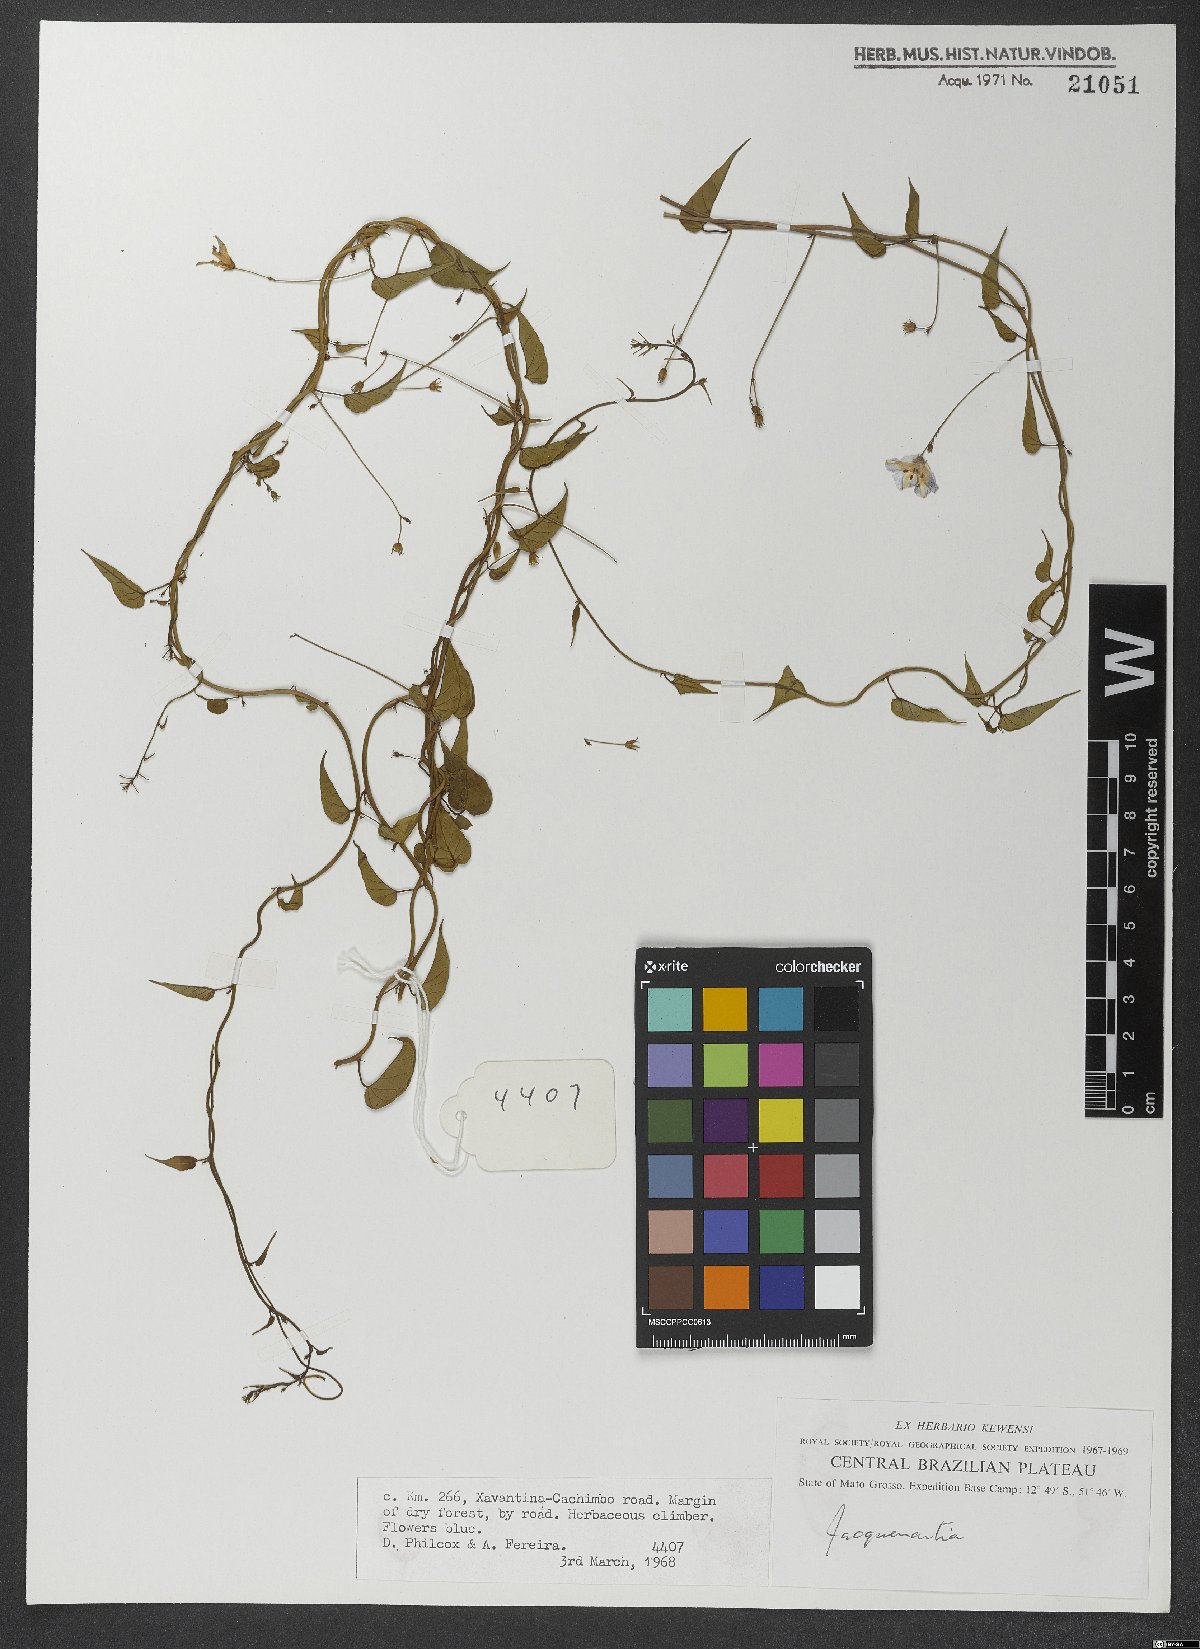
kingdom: Plantae
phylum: Tracheophyta
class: Magnoliopsida
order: Solanales
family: Convolvulaceae
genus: Jacquemontia
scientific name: Jacquemontia
